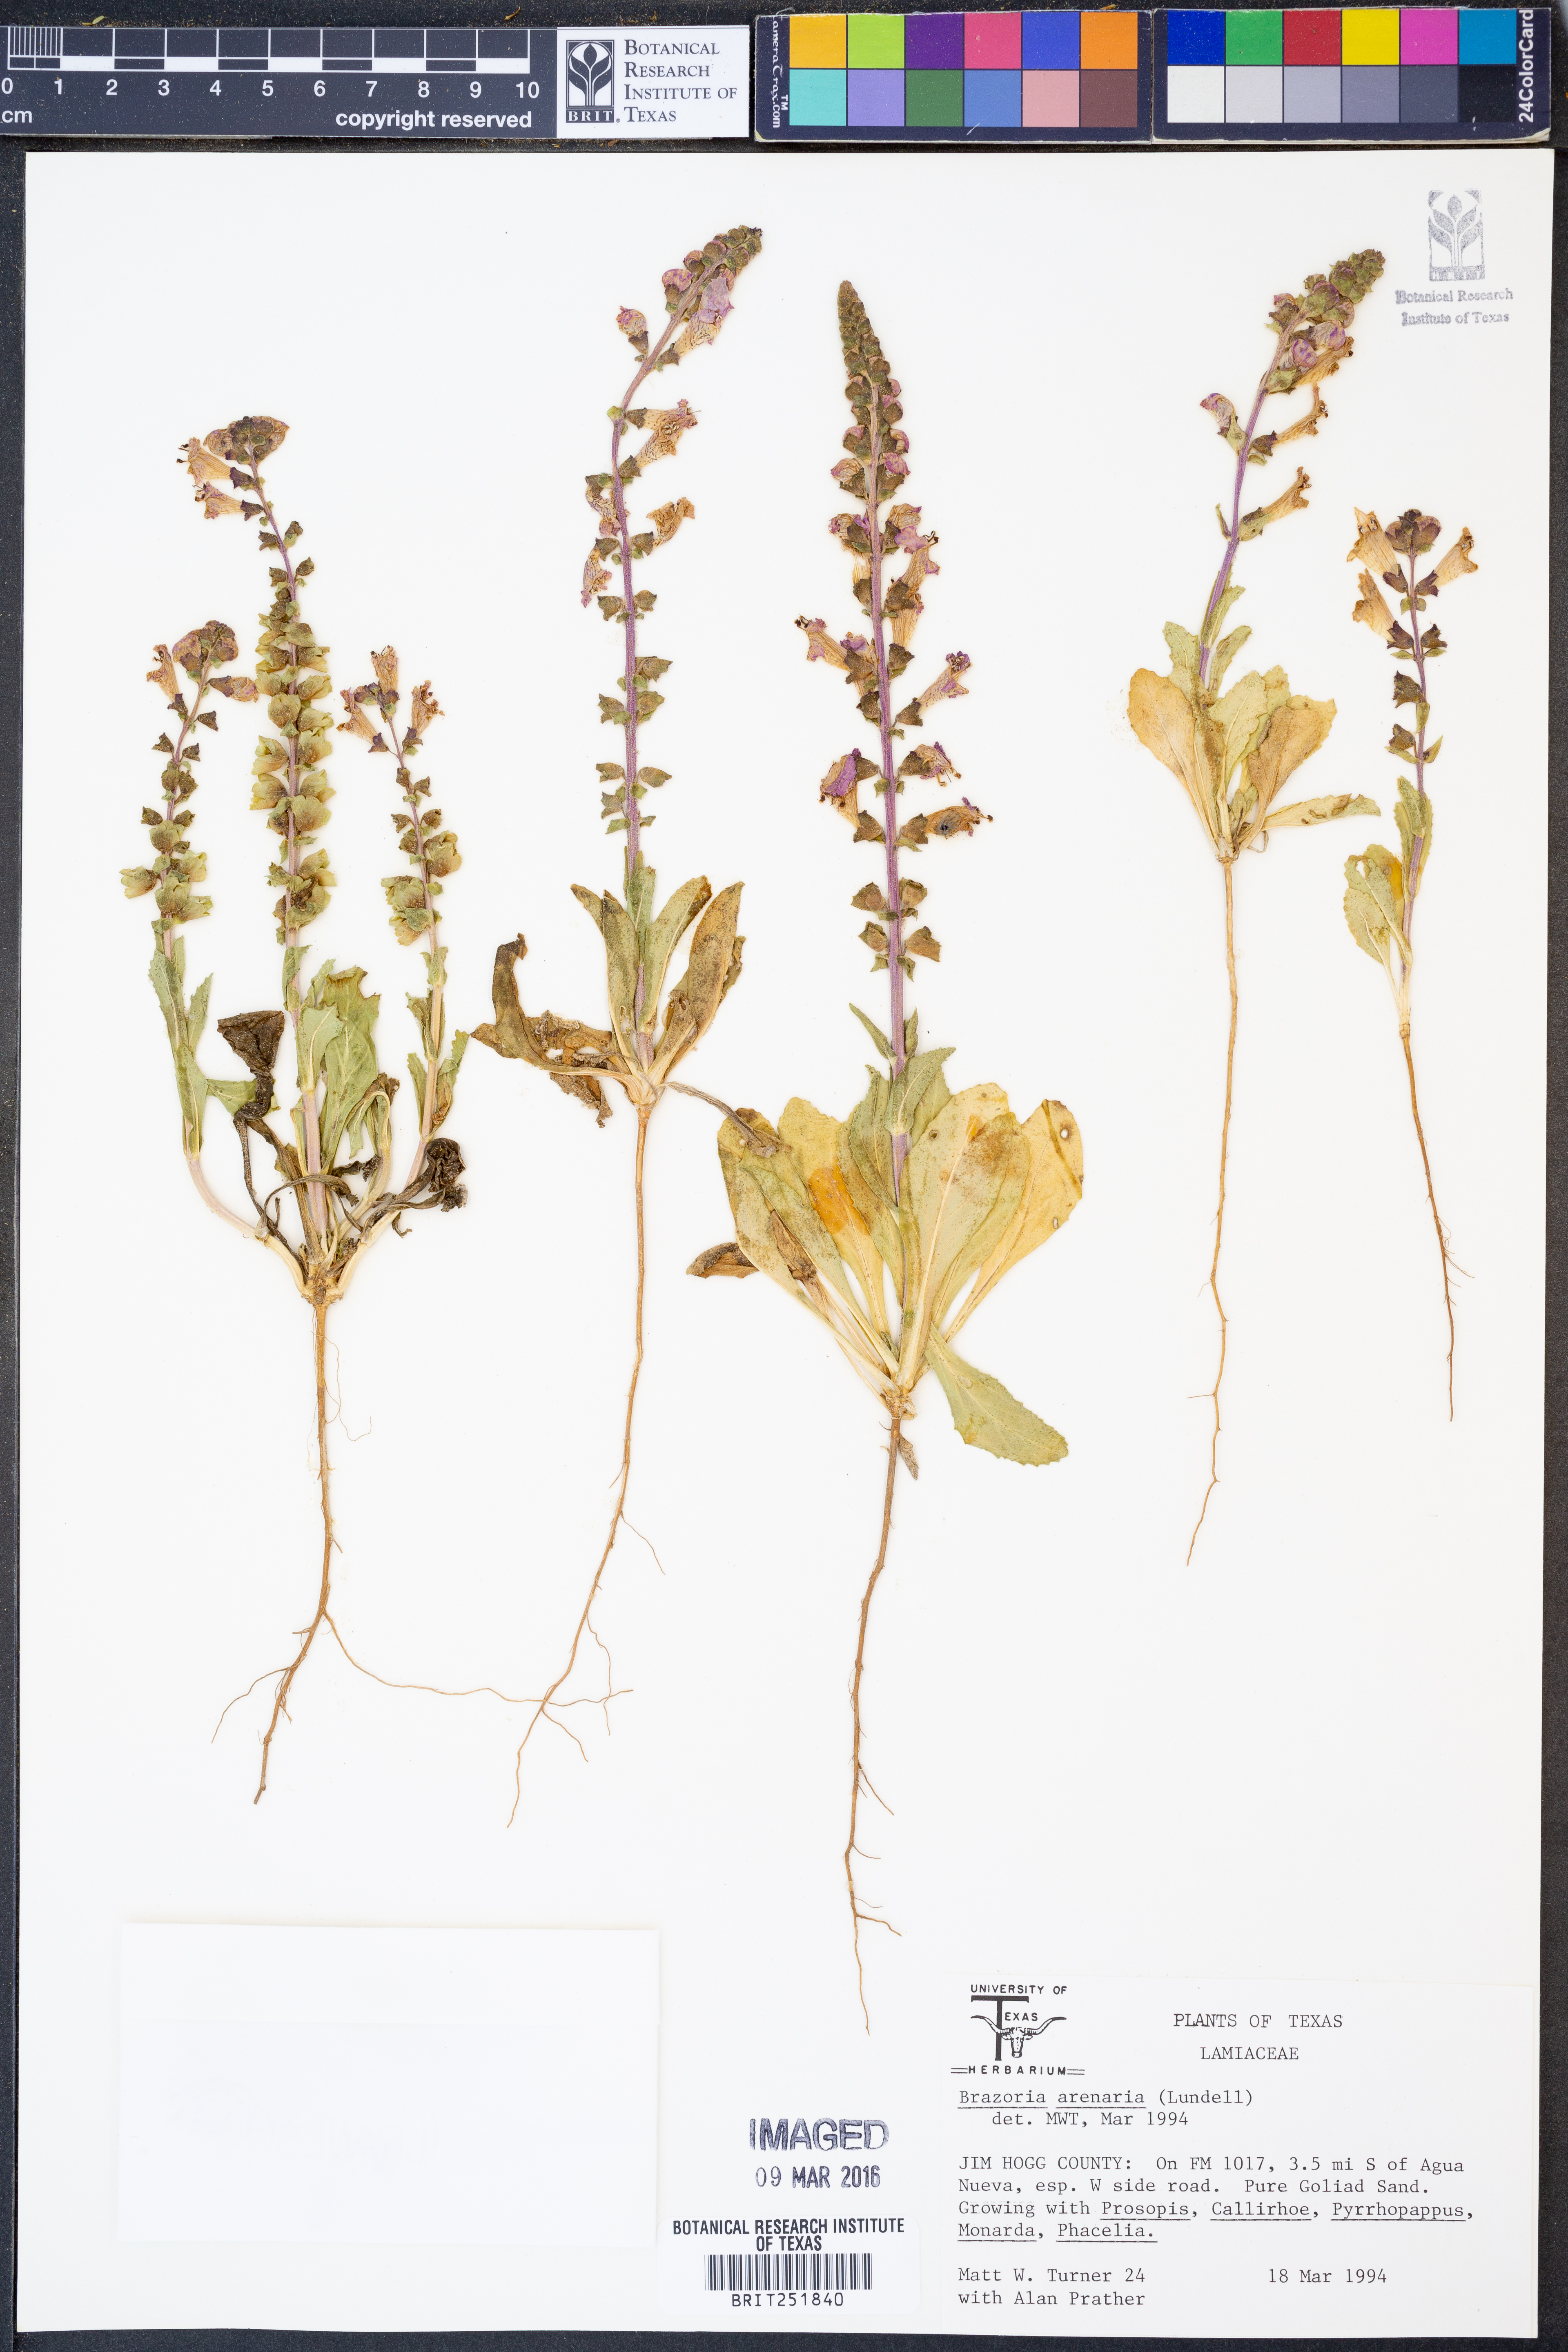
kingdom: Plantae
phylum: Tracheophyta
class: Magnoliopsida
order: Lamiales
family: Lamiaceae
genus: Brazoria
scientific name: Brazoria arenaria
